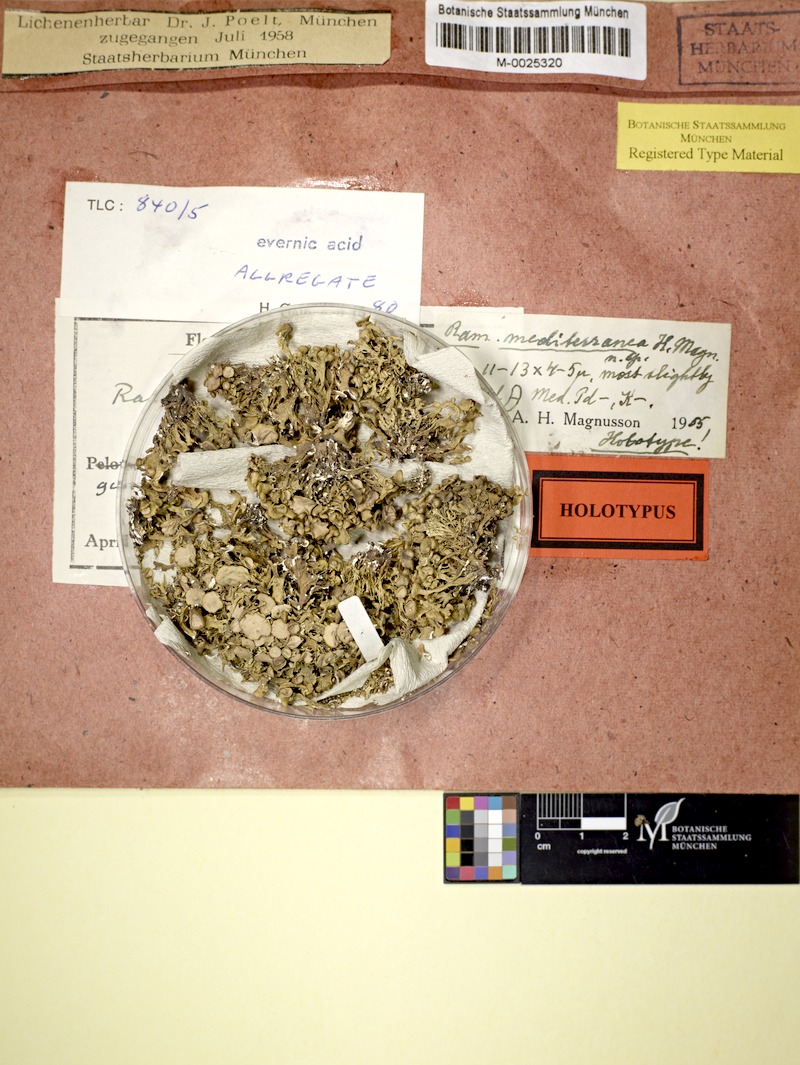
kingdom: Fungi
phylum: Ascomycota
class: Lecanoromycetes
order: Lecanorales
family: Ramalinaceae
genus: Ramalina
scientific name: Ramalina breviuscula
